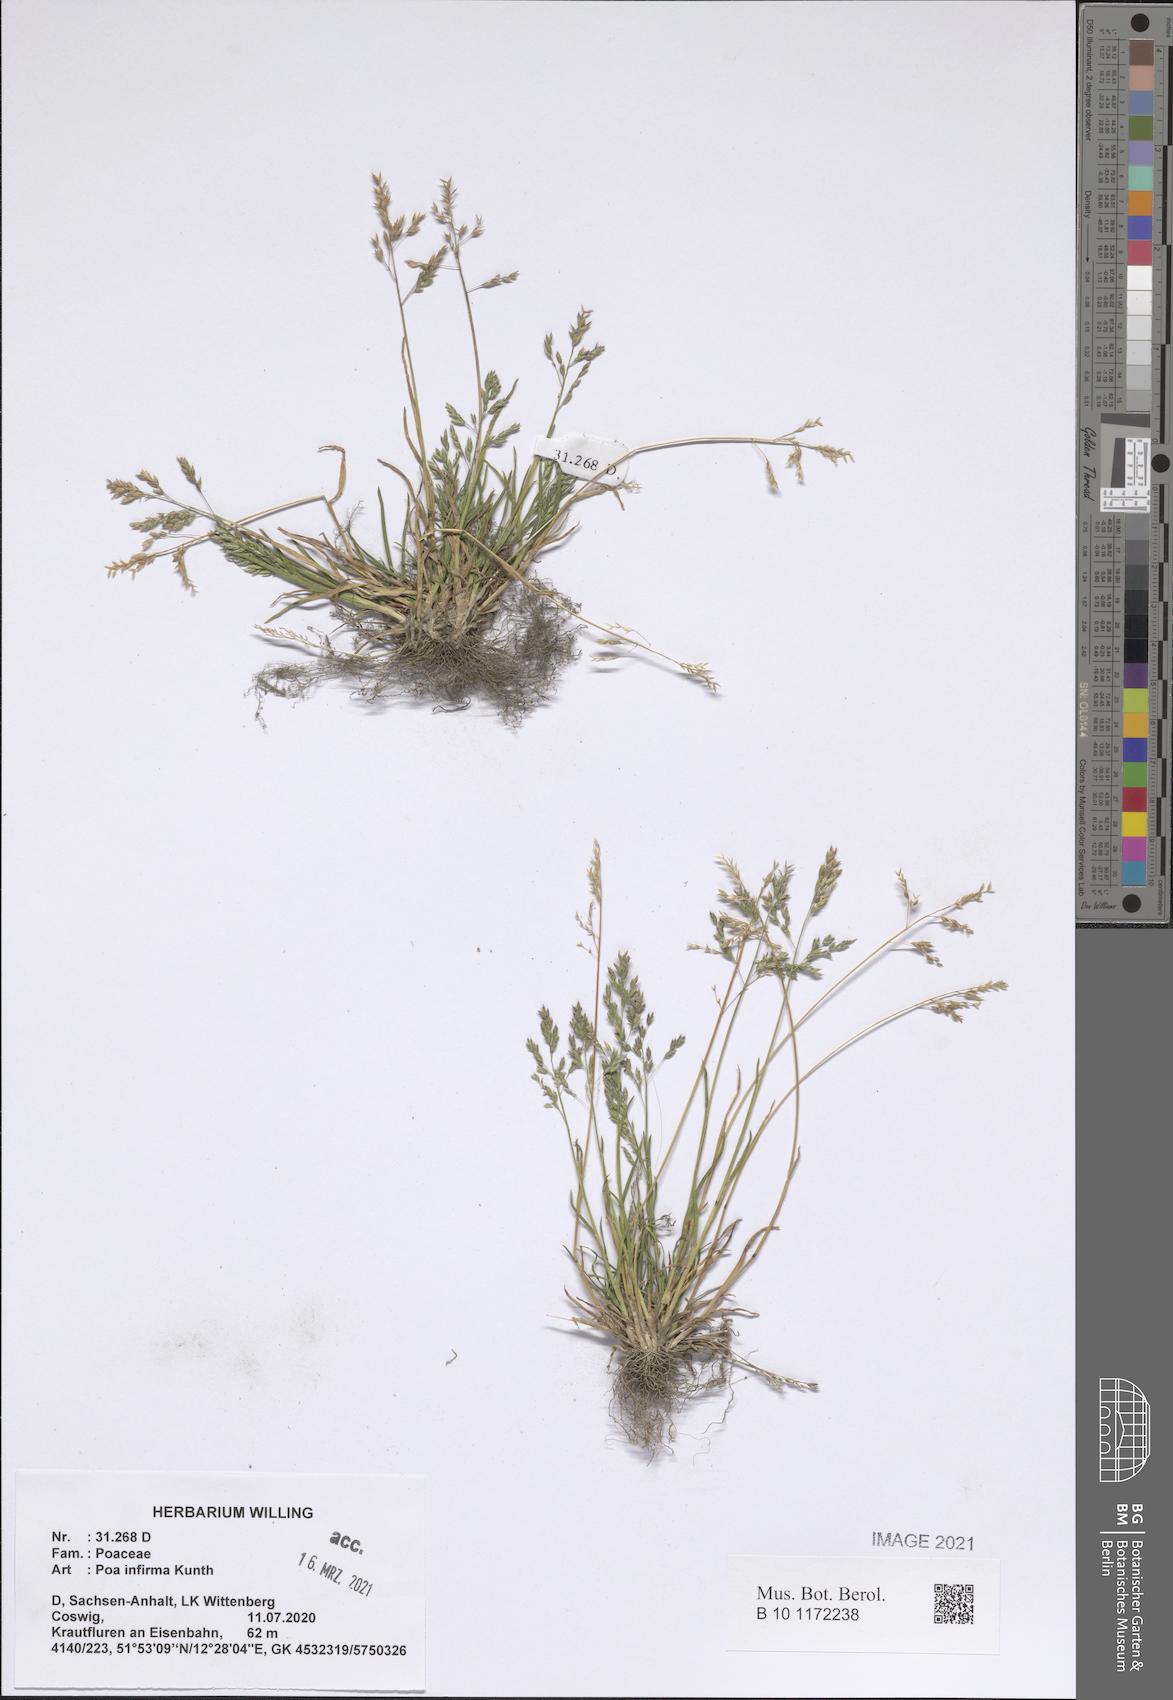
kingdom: Plantae
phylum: Tracheophyta
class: Liliopsida
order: Poales
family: Poaceae
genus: Poa
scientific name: Poa infirma
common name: Weak bluegrass
